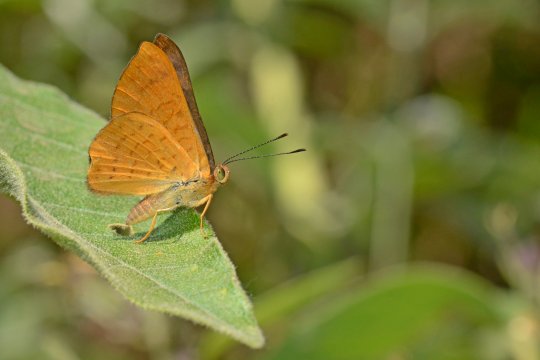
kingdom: Animalia
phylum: Arthropoda
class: Insecta
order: Lepidoptera
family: Lycaenidae
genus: Emesis
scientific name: Emesis vulpina
